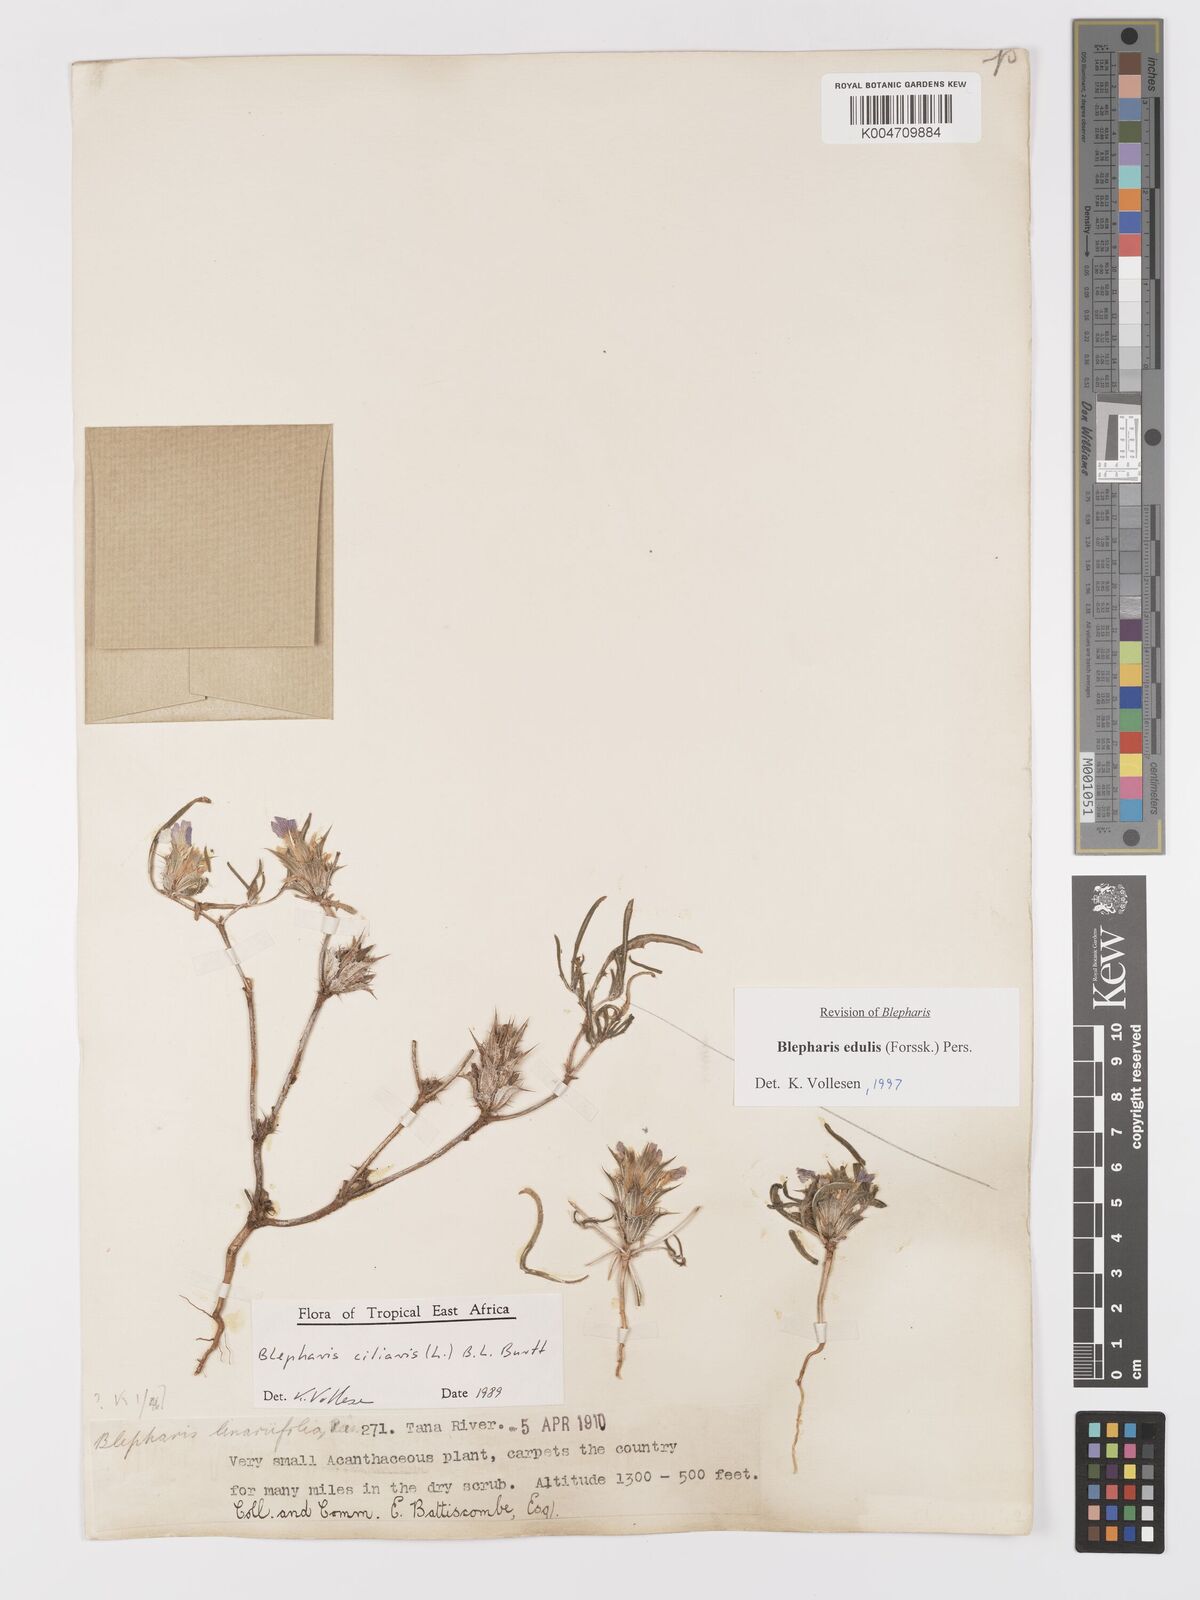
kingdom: Plantae
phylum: Tracheophyta
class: Magnoliopsida
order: Lamiales
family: Acanthaceae
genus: Blepharis
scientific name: Blepharis edulis
